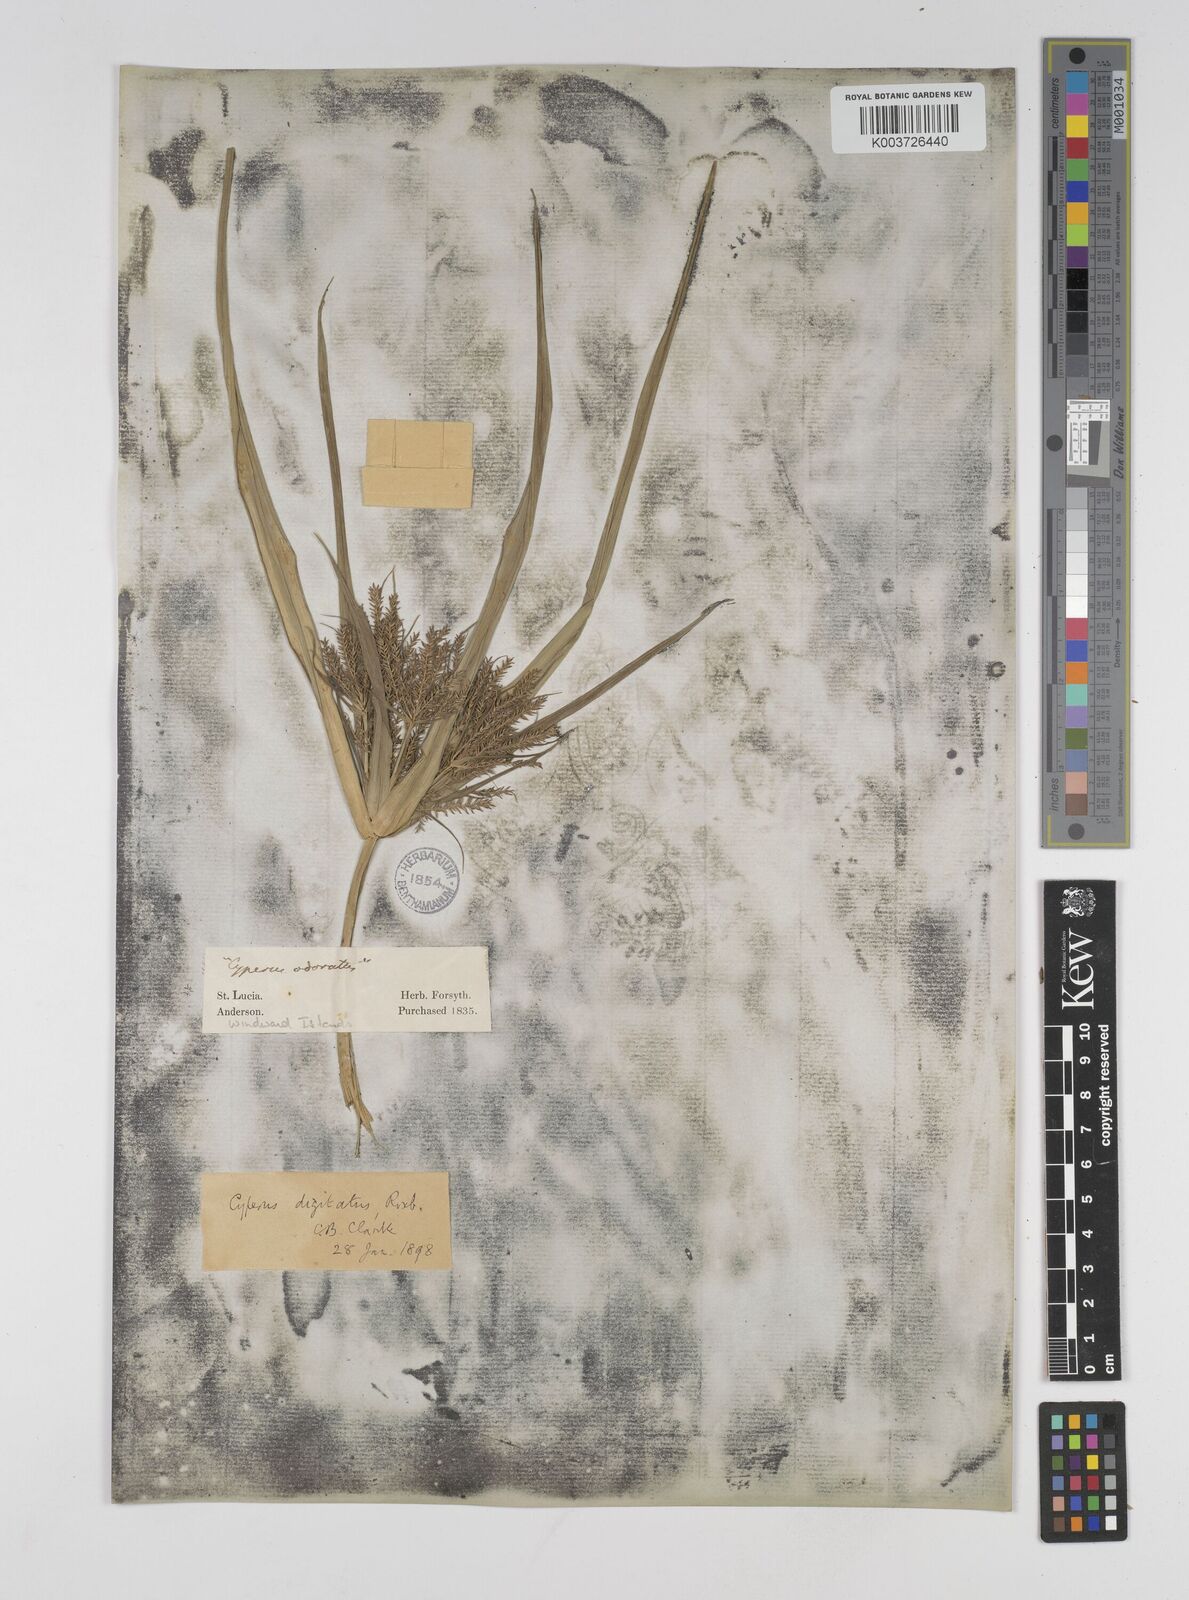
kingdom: Plantae
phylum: Tracheophyta
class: Liliopsida
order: Poales
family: Cyperaceae
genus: Cyperus
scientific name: Cyperus digitatus
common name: Finger flatsedge
